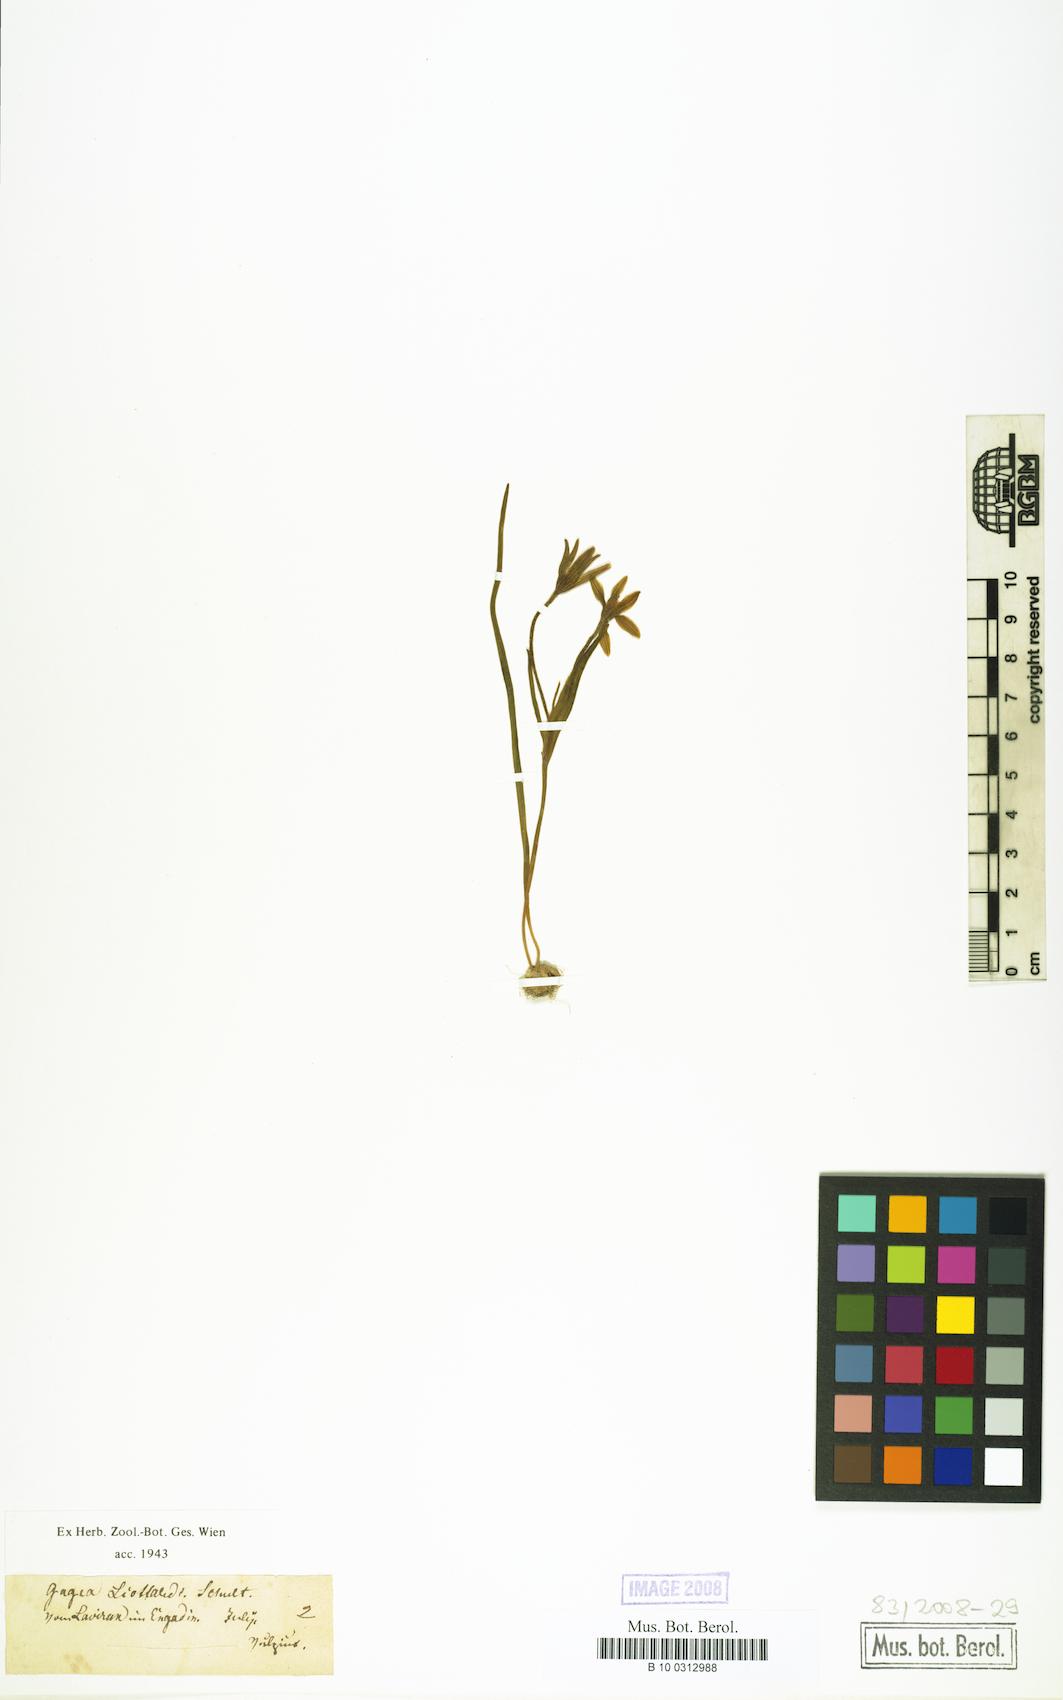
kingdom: Plantae
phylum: Tracheophyta
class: Liliopsida
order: Liliales
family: Liliaceae
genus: Gagea
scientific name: Gagea
